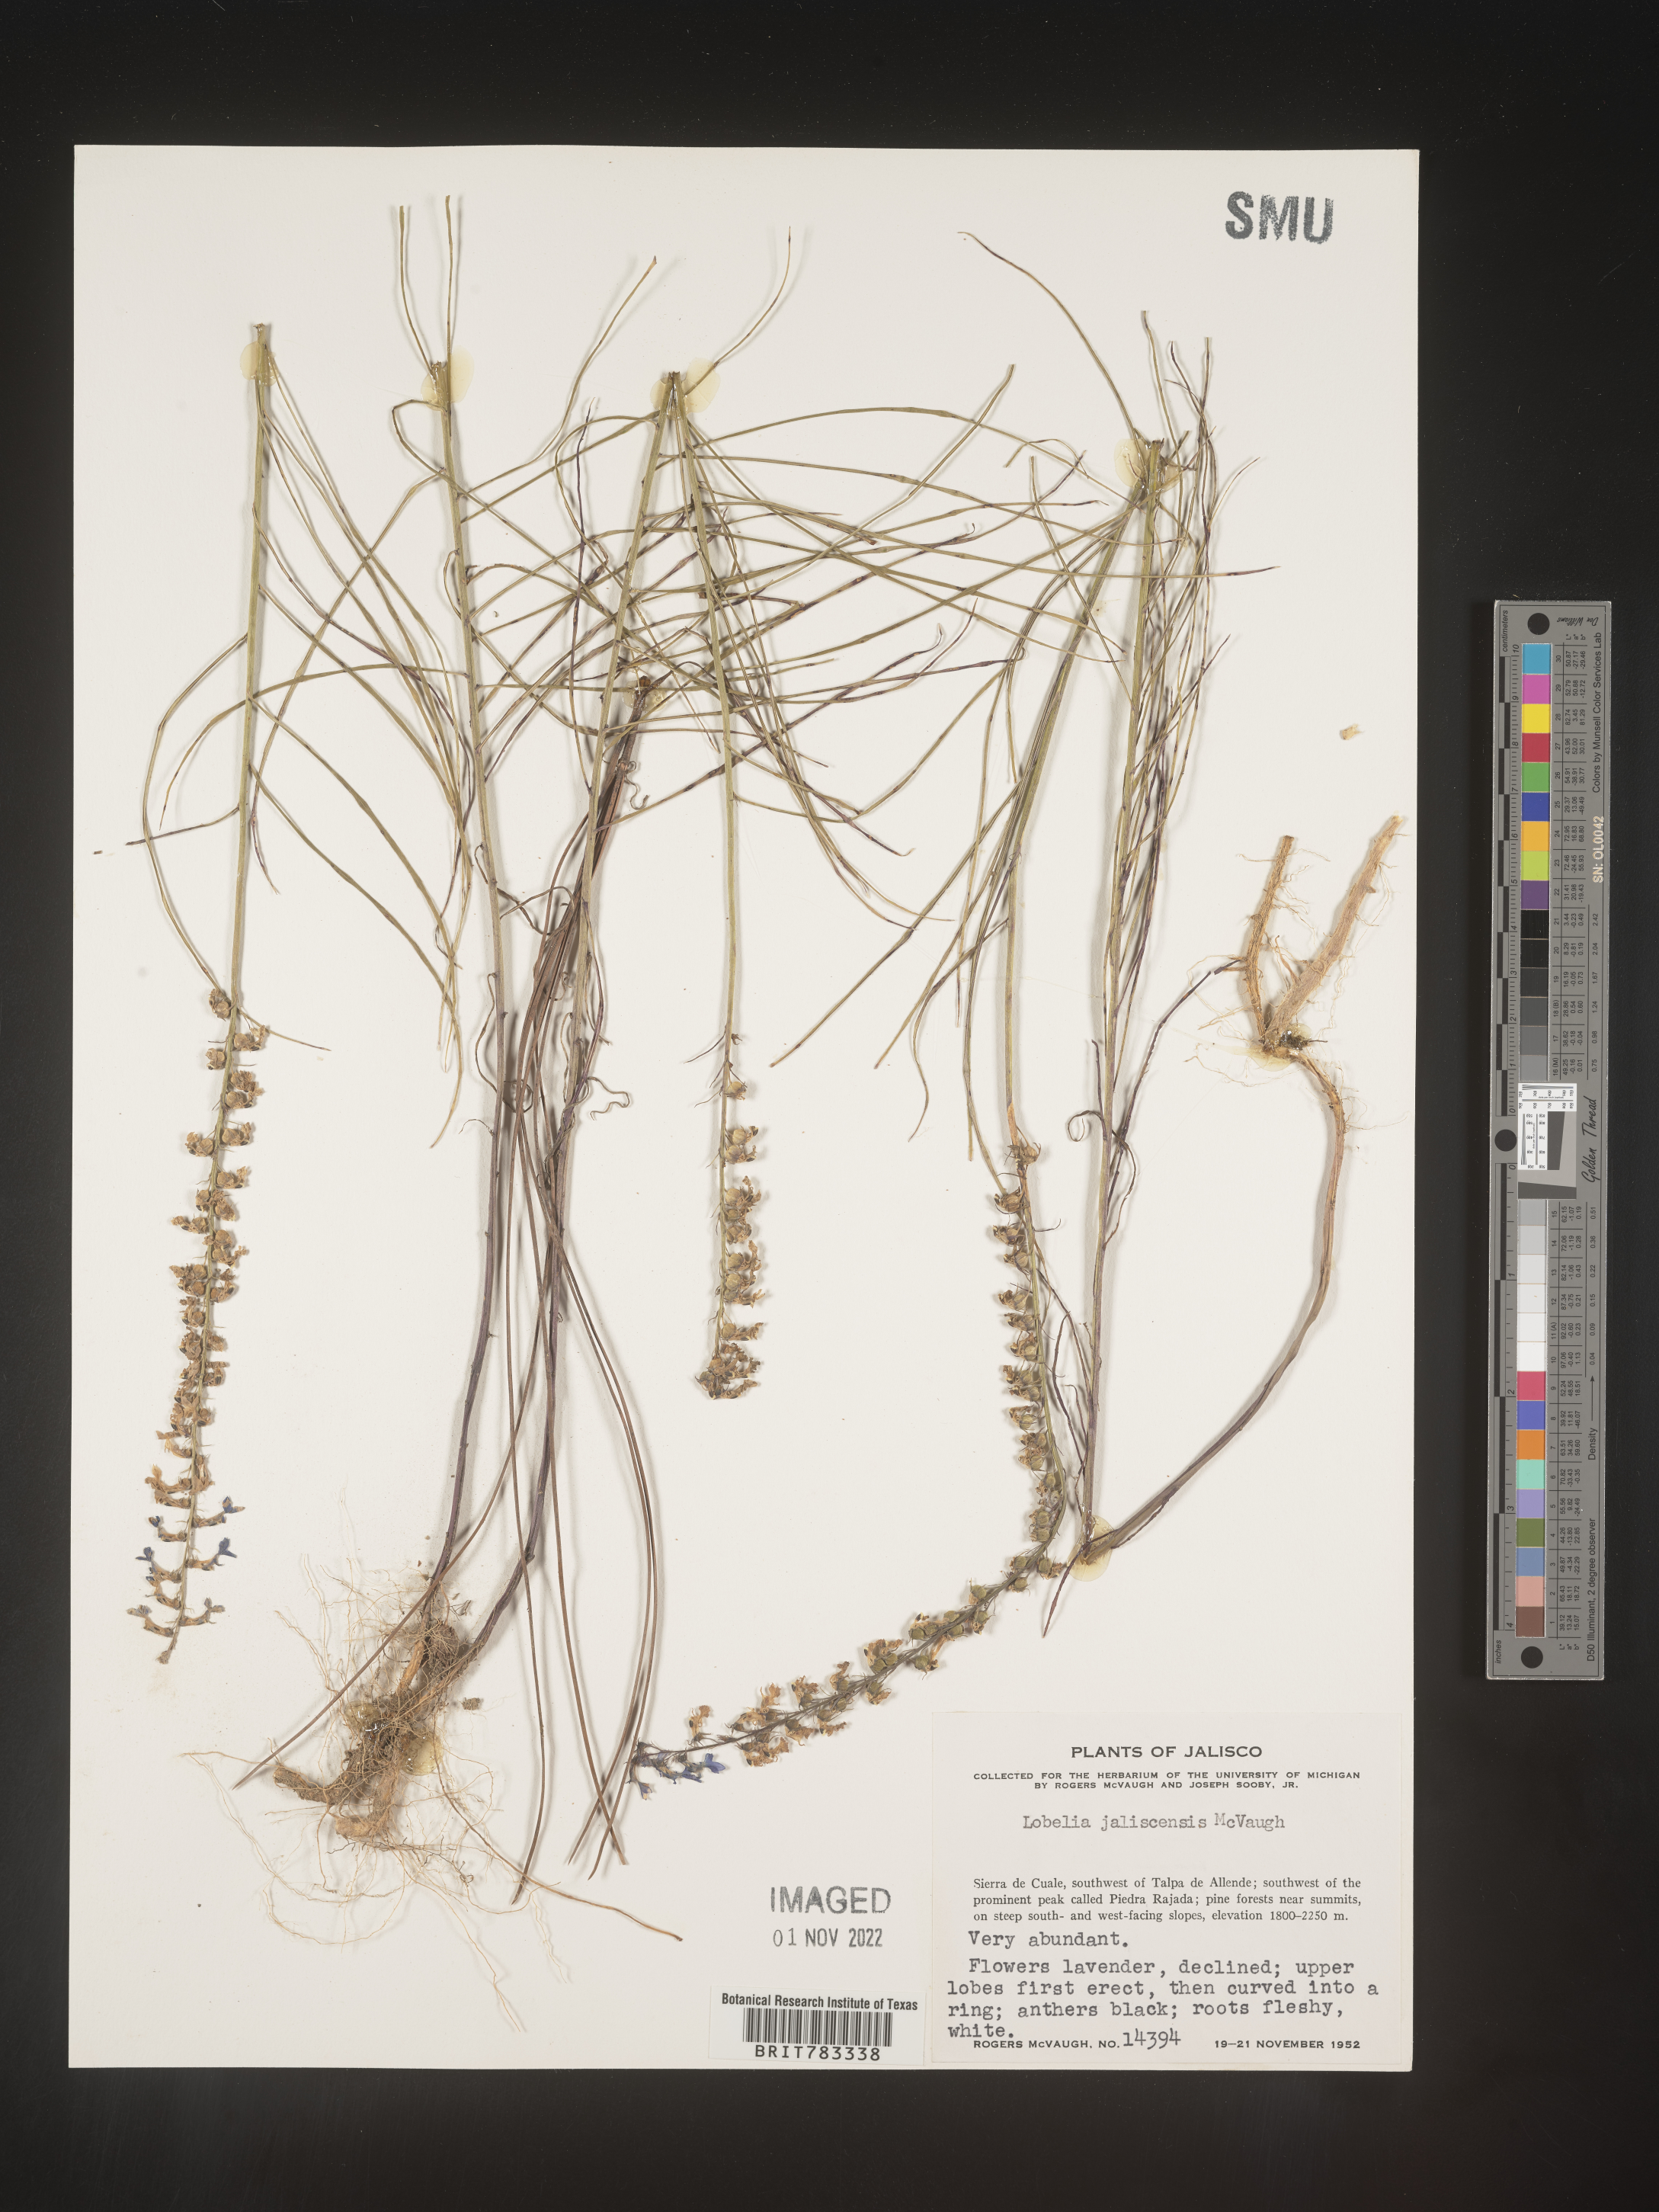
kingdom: Plantae
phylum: Tracheophyta
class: Magnoliopsida
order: Asterales
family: Campanulaceae
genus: Lobelia
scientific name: Lobelia
